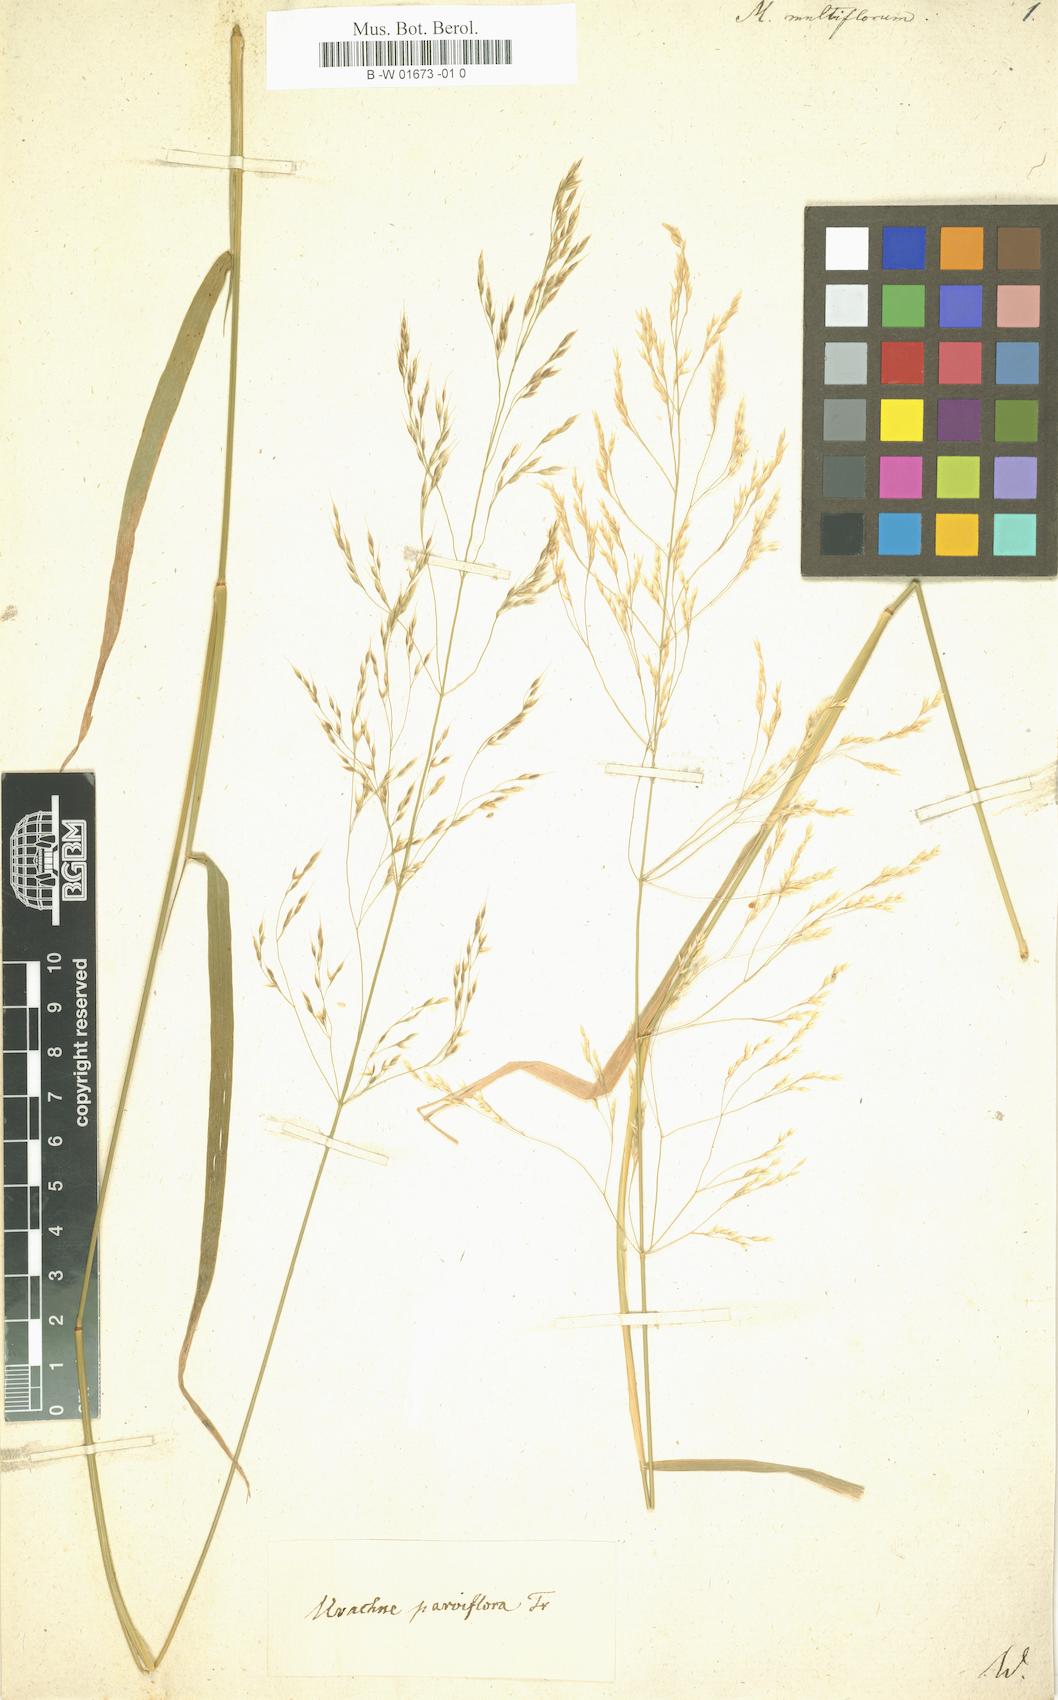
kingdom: Plantae
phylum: Tracheophyta
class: Liliopsida
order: Poales
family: Poaceae
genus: Oloptum
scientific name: Oloptum miliaceum
